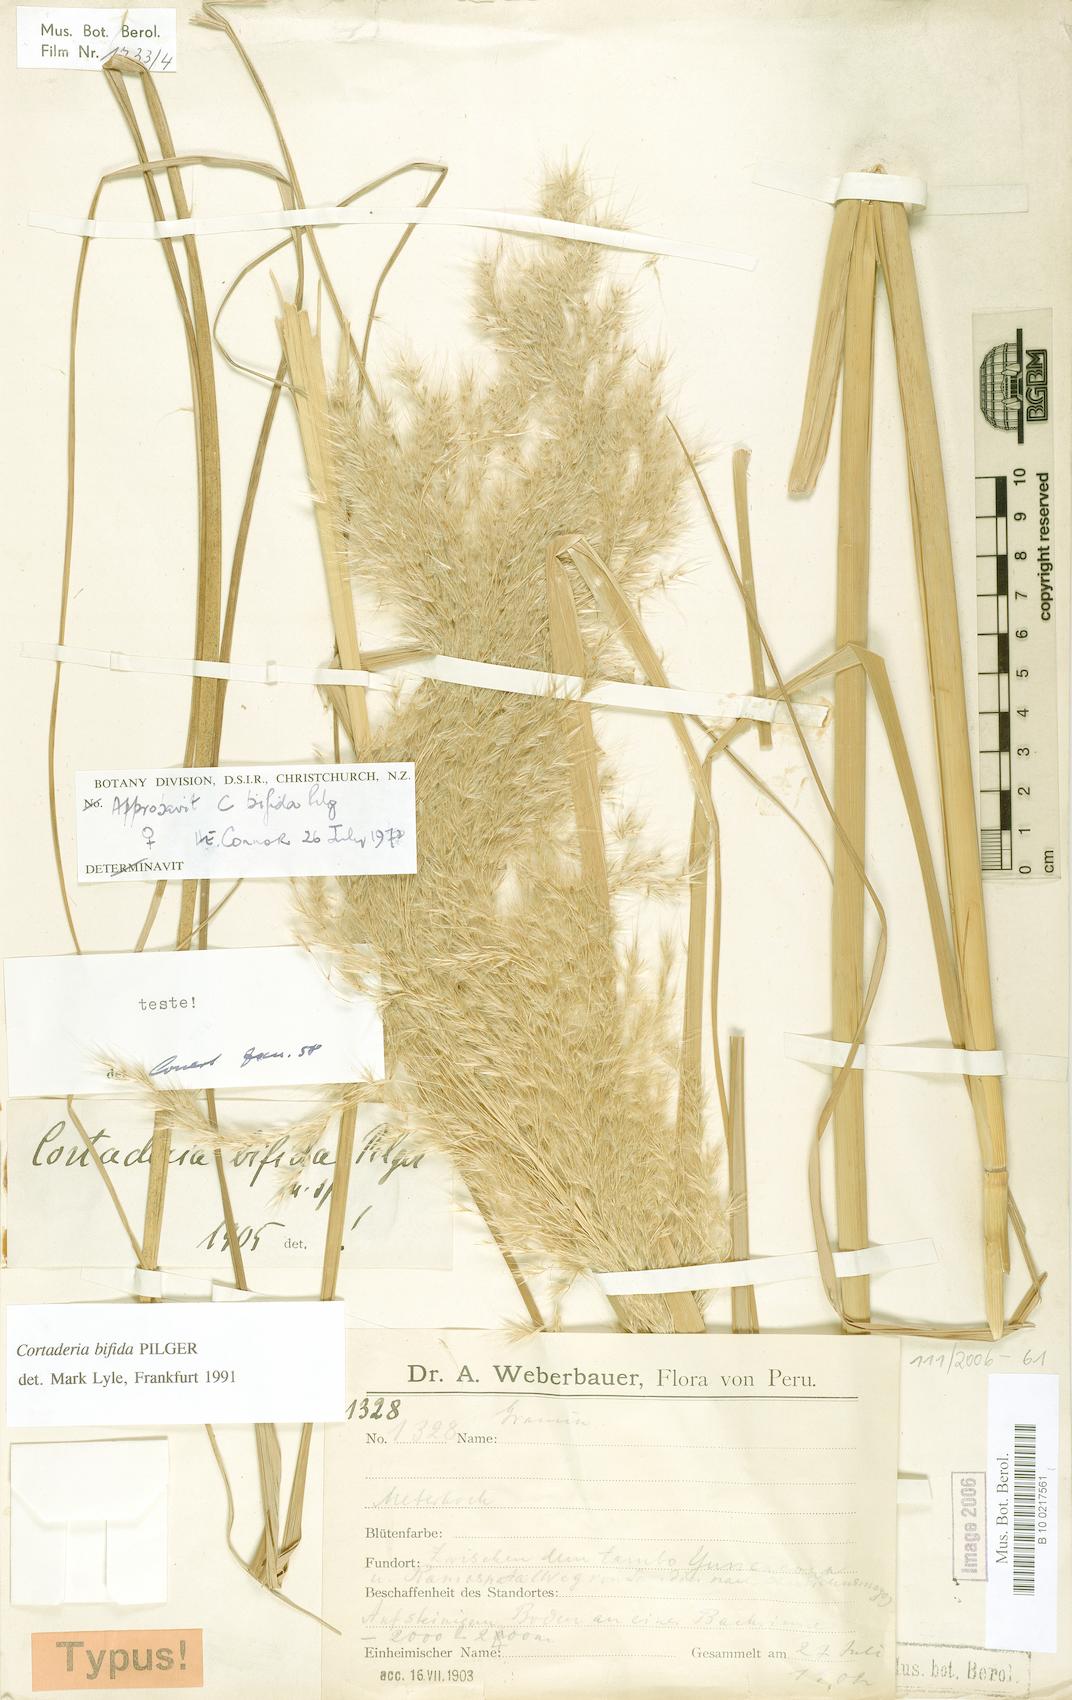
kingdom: Plantae
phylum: Tracheophyta
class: Liliopsida
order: Poales
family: Poaceae
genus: Cortaderia
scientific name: Cortaderia bifida
